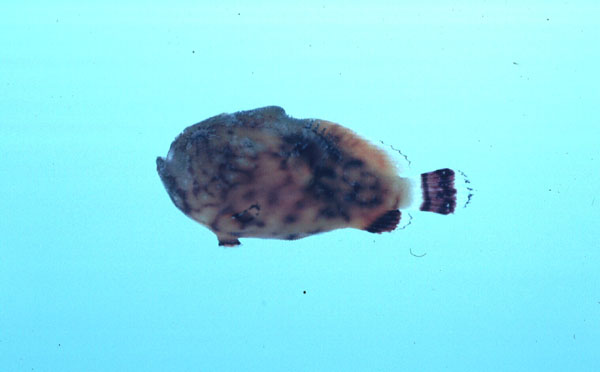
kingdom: Animalia
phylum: Chordata
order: Lophiiformes
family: Antennariidae
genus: Antennatus
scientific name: Antennatus tuberosus
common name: Reticulated frogfish
